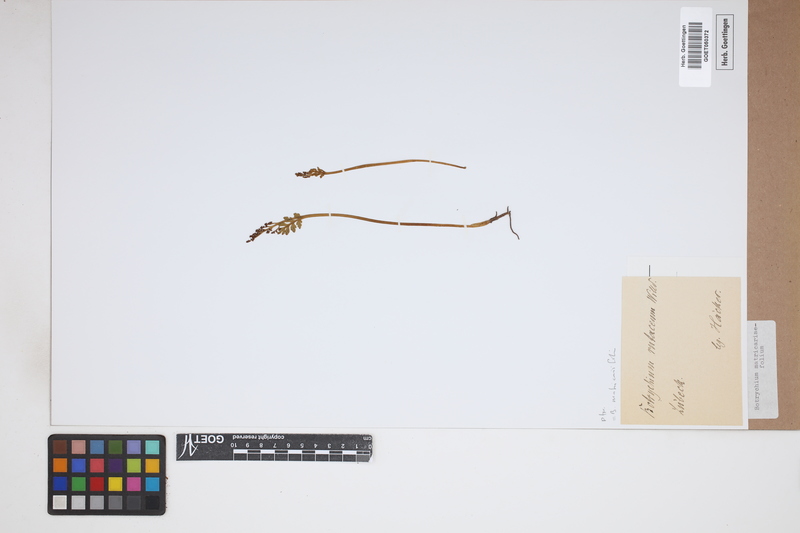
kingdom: Plantae
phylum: Tracheophyta
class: Polypodiopsida
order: Ophioglossales
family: Ophioglossaceae
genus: Botrychium
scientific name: Botrychium matricariifolium
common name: Branched moonwort
